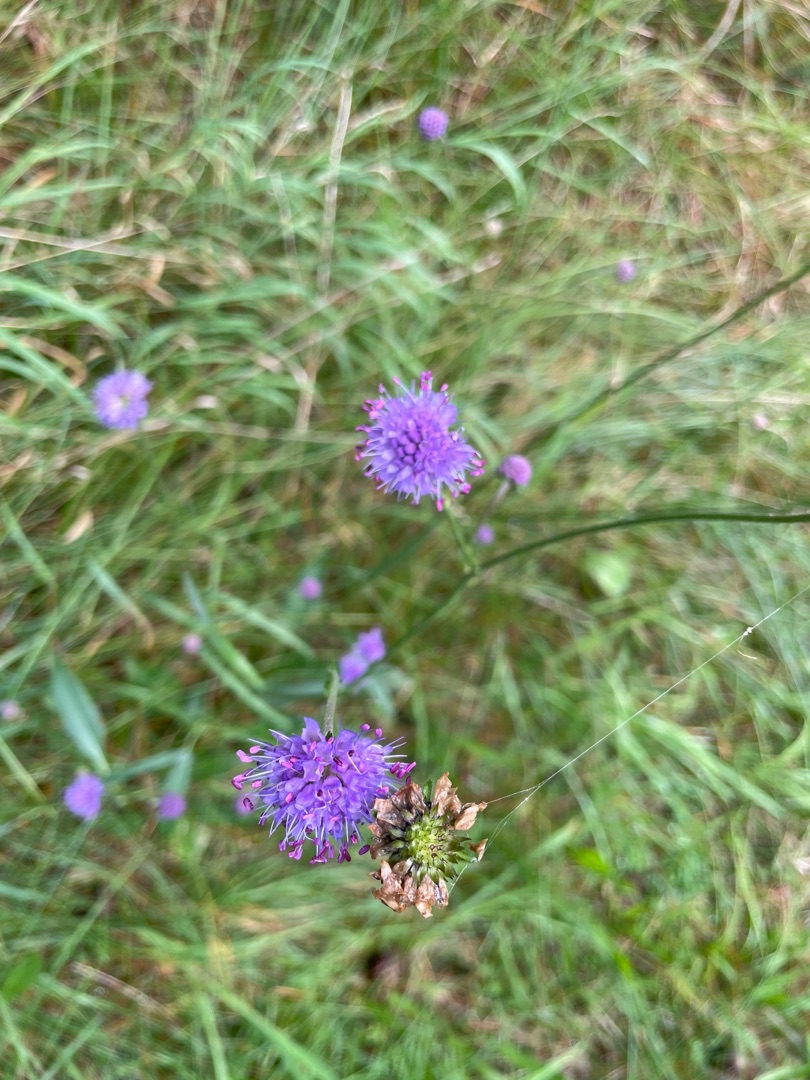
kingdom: Plantae
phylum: Tracheophyta
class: Magnoliopsida
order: Dipsacales
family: Caprifoliaceae
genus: Succisa
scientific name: Succisa pratensis
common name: Djævelsbid
